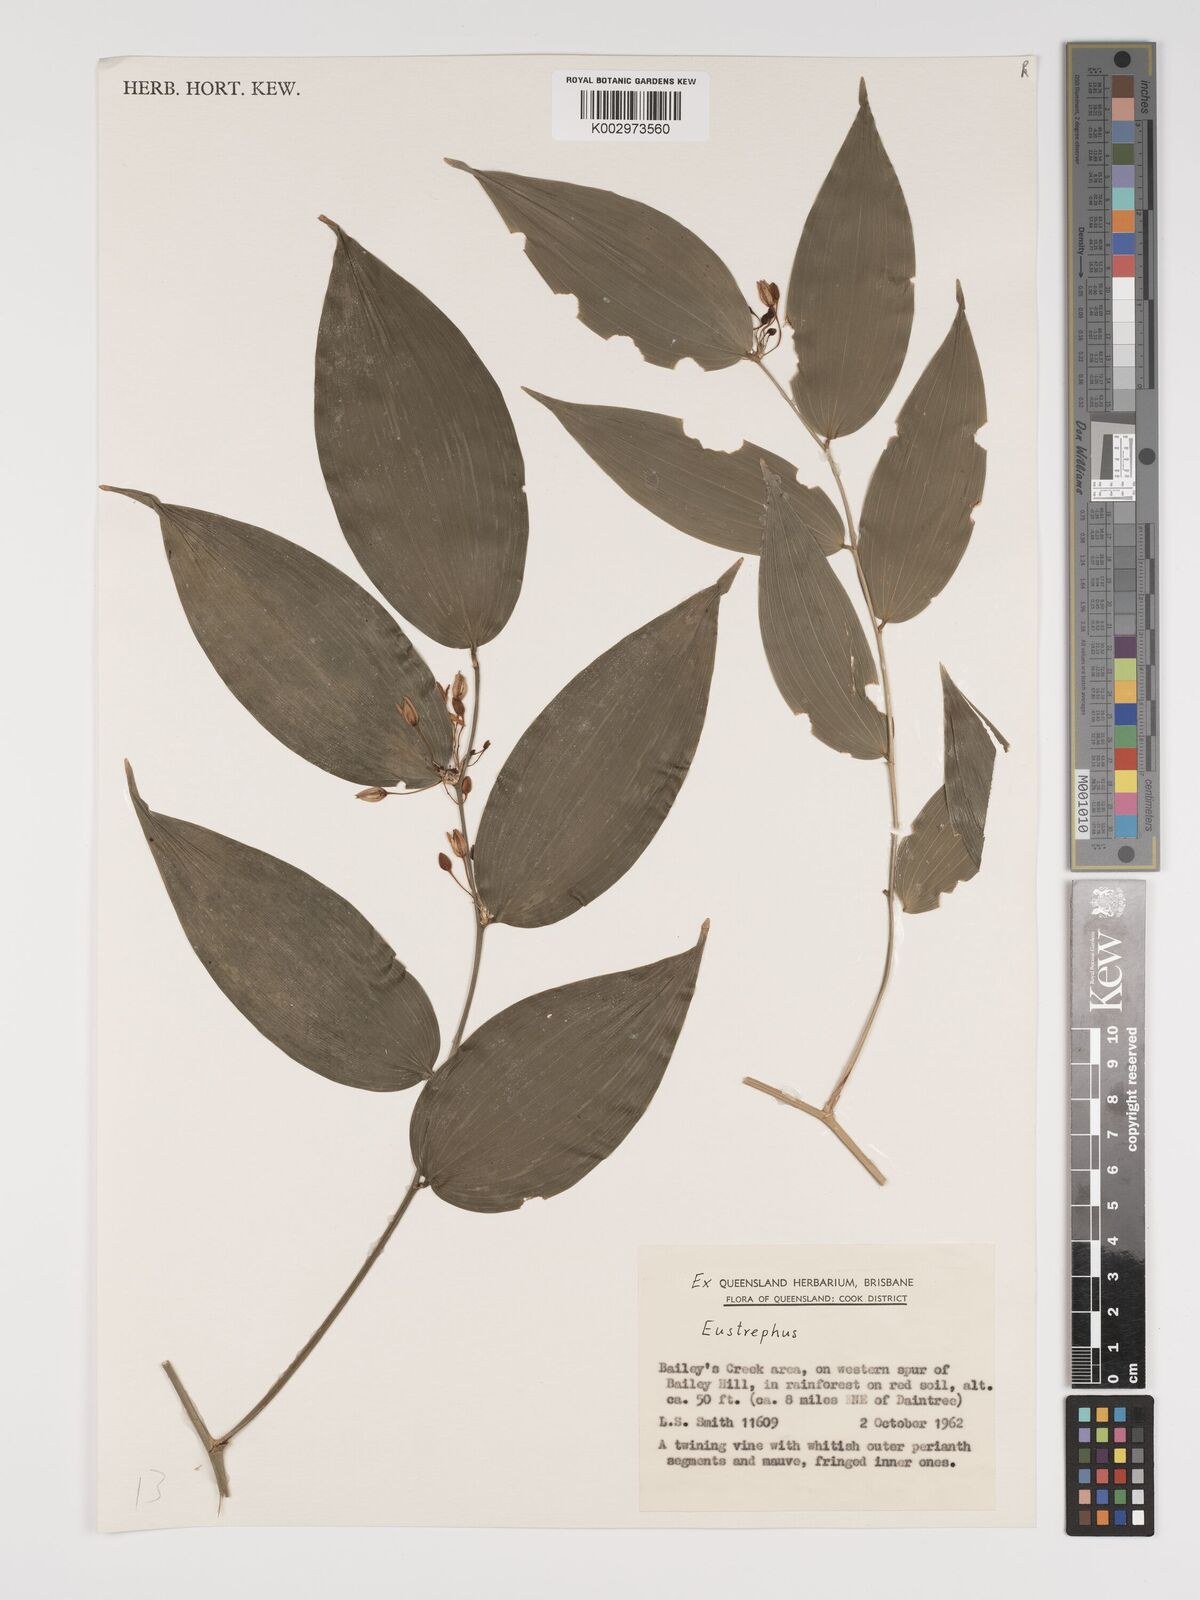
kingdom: Plantae
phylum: Tracheophyta
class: Liliopsida
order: Asparagales
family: Asparagaceae
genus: Eustrephus
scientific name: Eustrephus
